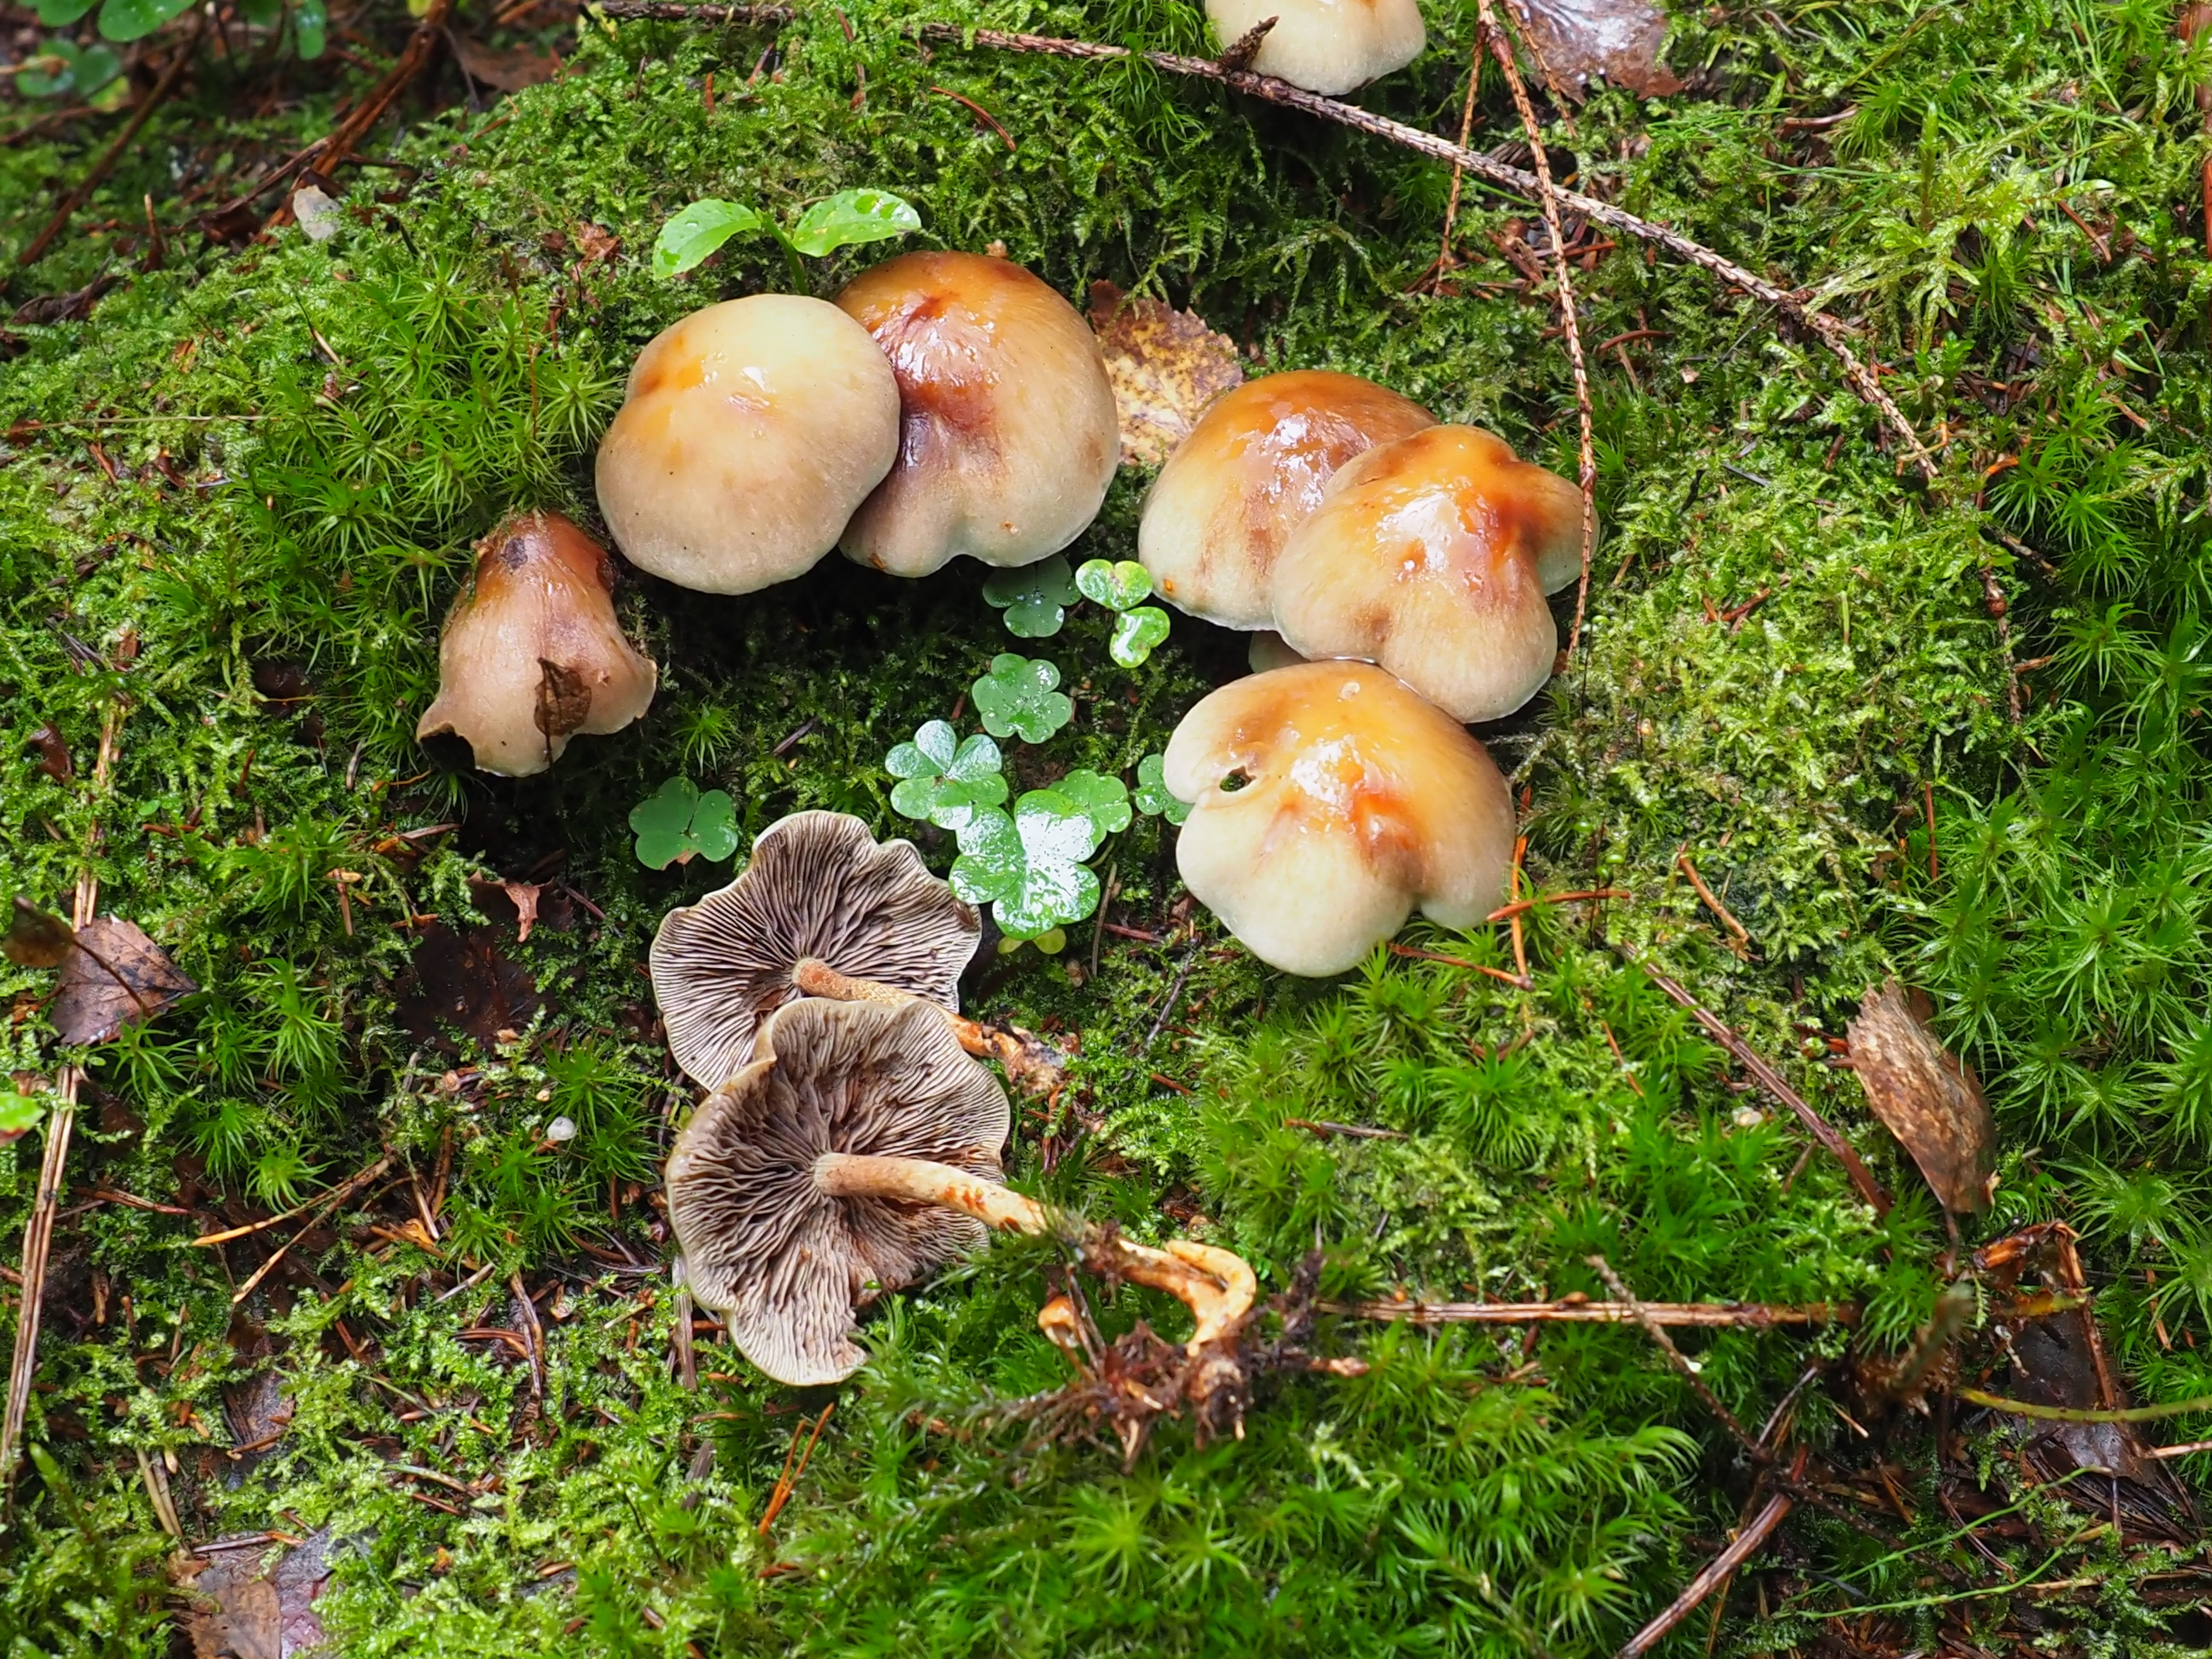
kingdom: Fungi
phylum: Basidiomycota
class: Agaricomycetes
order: Agaricales
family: Strophariaceae
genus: Hypholoma
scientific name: Hypholoma capnoides
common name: Conifer tuft
